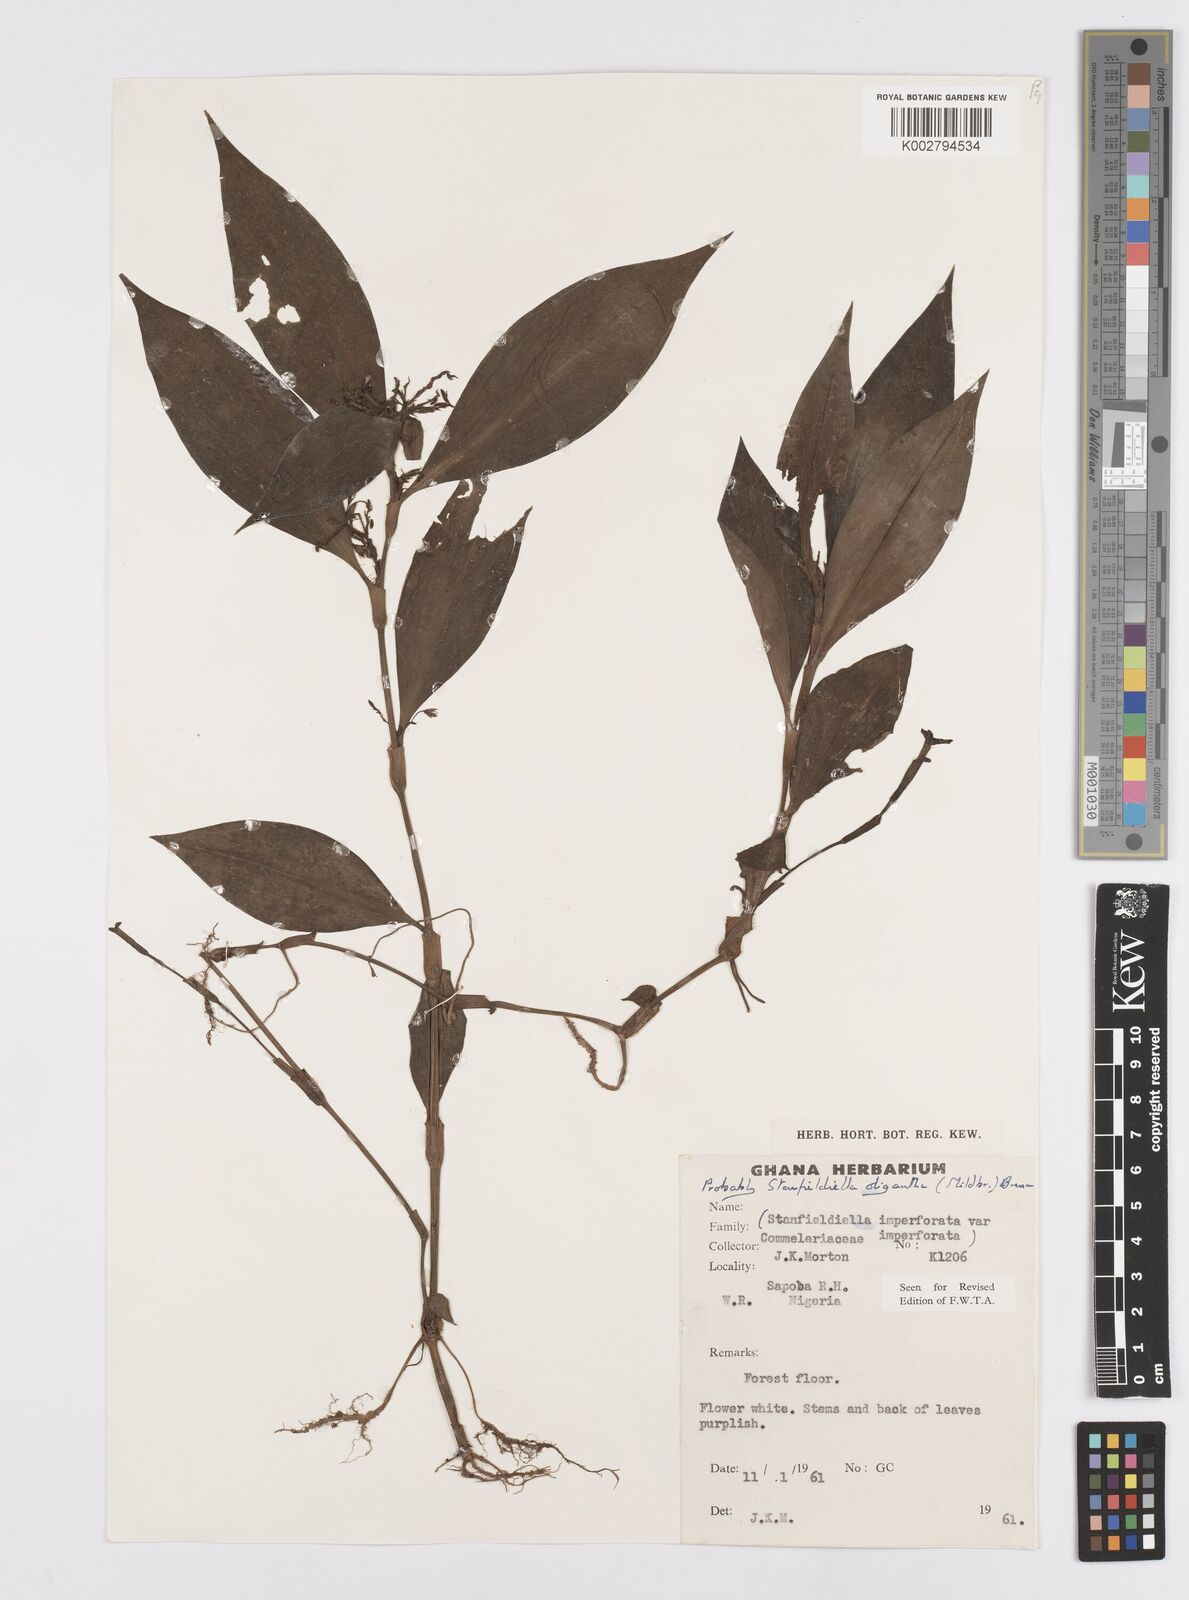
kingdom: Plantae
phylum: Tracheophyta
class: Liliopsida
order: Commelinales
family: Commelinaceae
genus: Stanfieldiella
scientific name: Stanfieldiella oligantha
